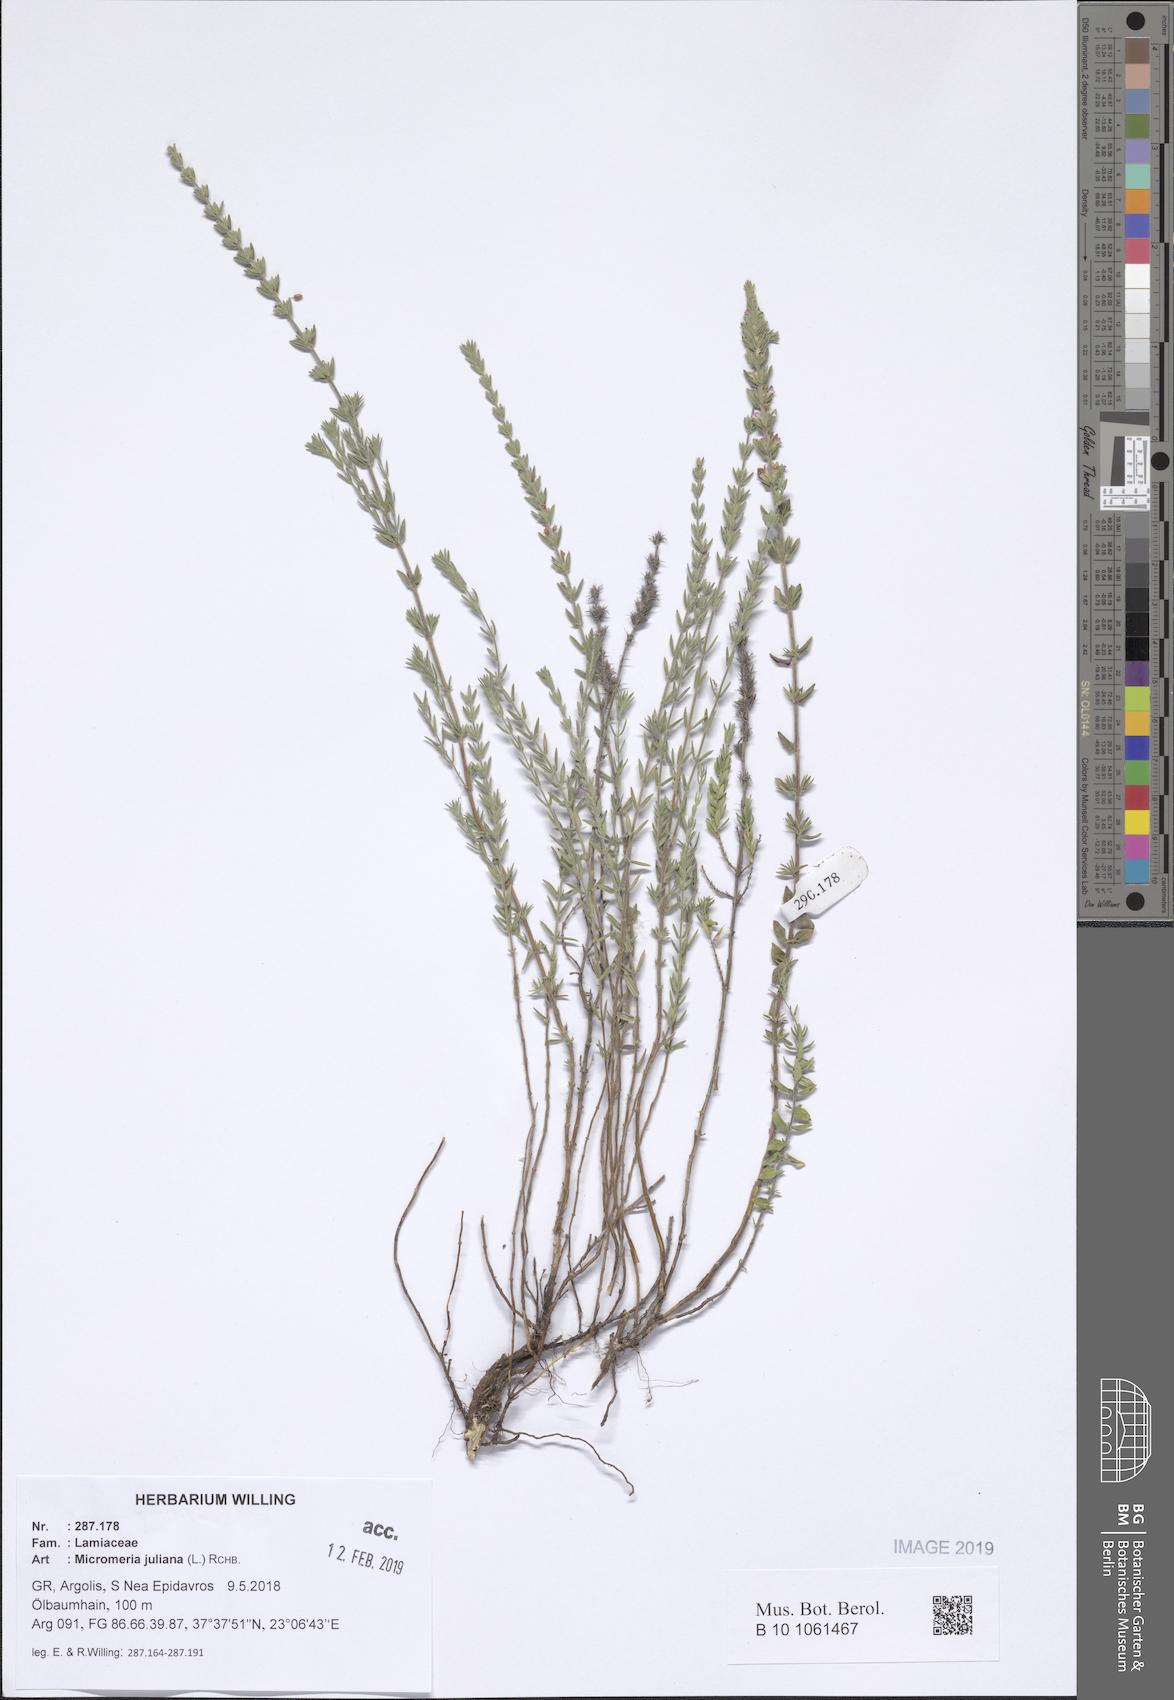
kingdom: Plantae
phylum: Tracheophyta
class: Magnoliopsida
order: Lamiales
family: Lamiaceae
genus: Micromeria
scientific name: Micromeria juliana
